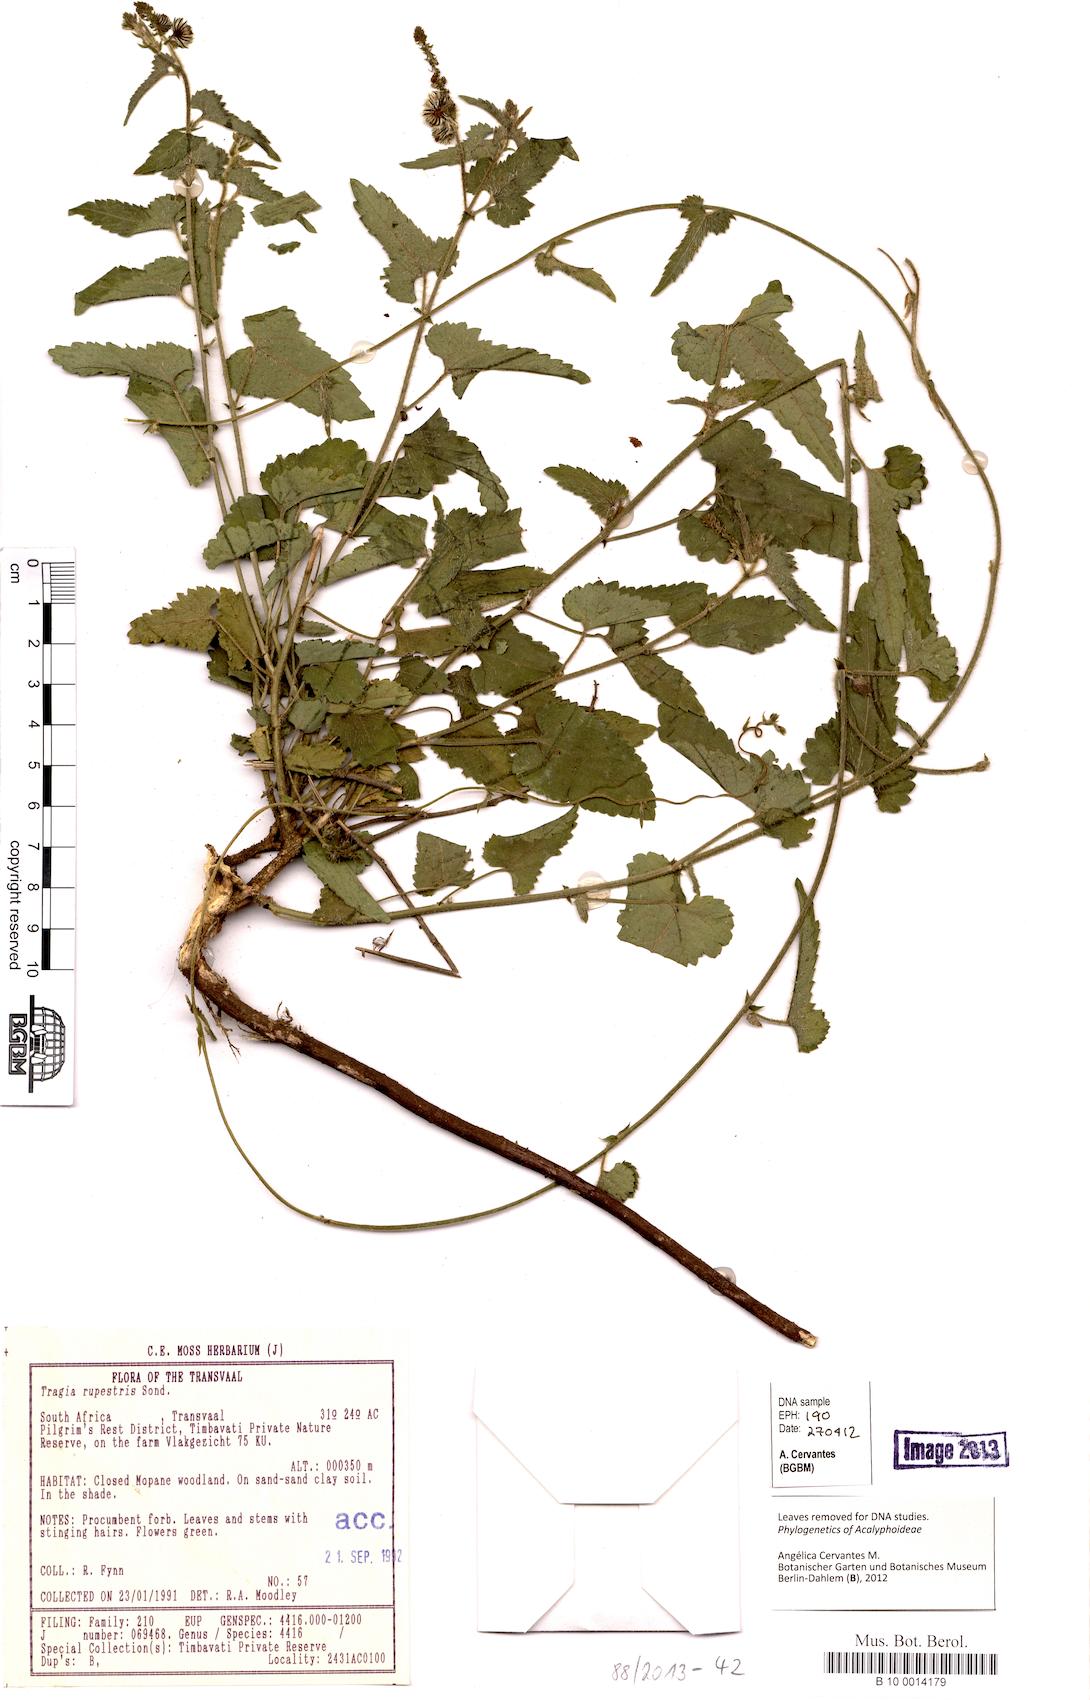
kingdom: Plantae
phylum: Tracheophyta
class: Magnoliopsida
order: Malpighiales
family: Euphorbiaceae
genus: Tragia
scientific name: Tragia rupestris
